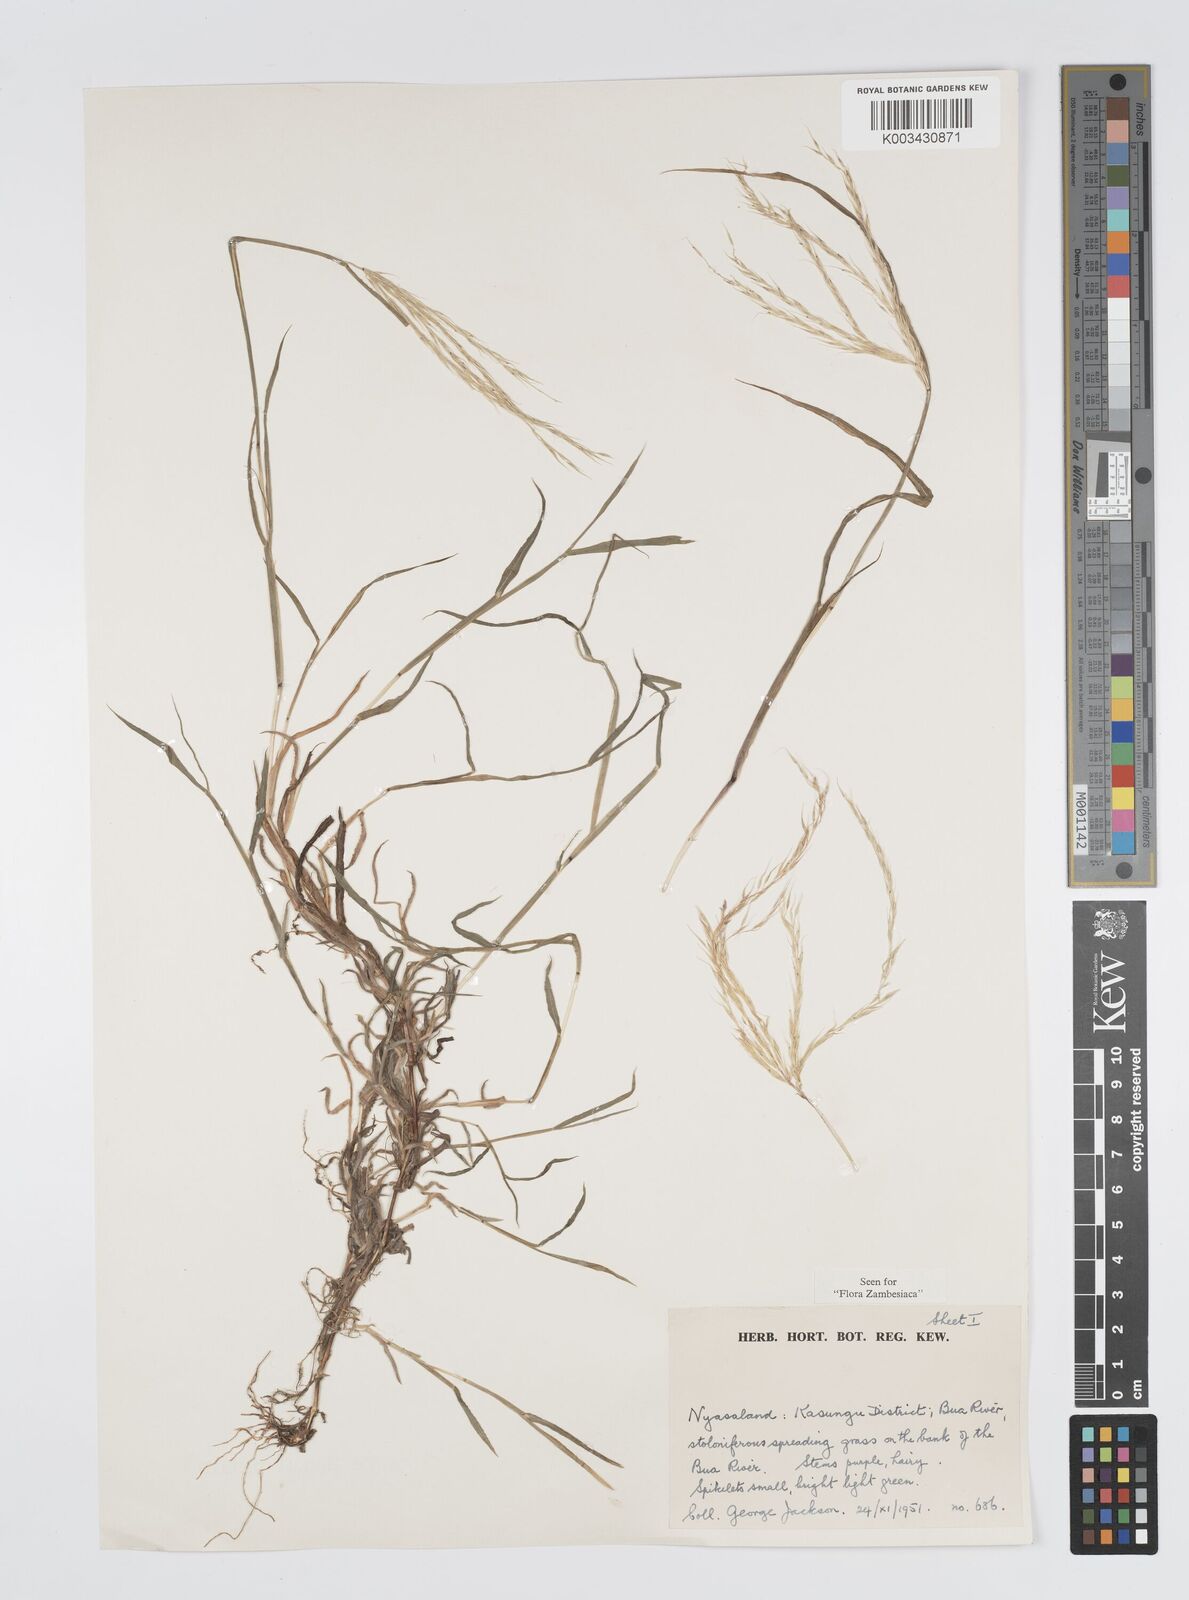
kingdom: Plantae
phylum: Tracheophyta
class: Liliopsida
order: Poales
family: Poaceae
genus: Digitaria
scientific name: Digitaria remotigluma
